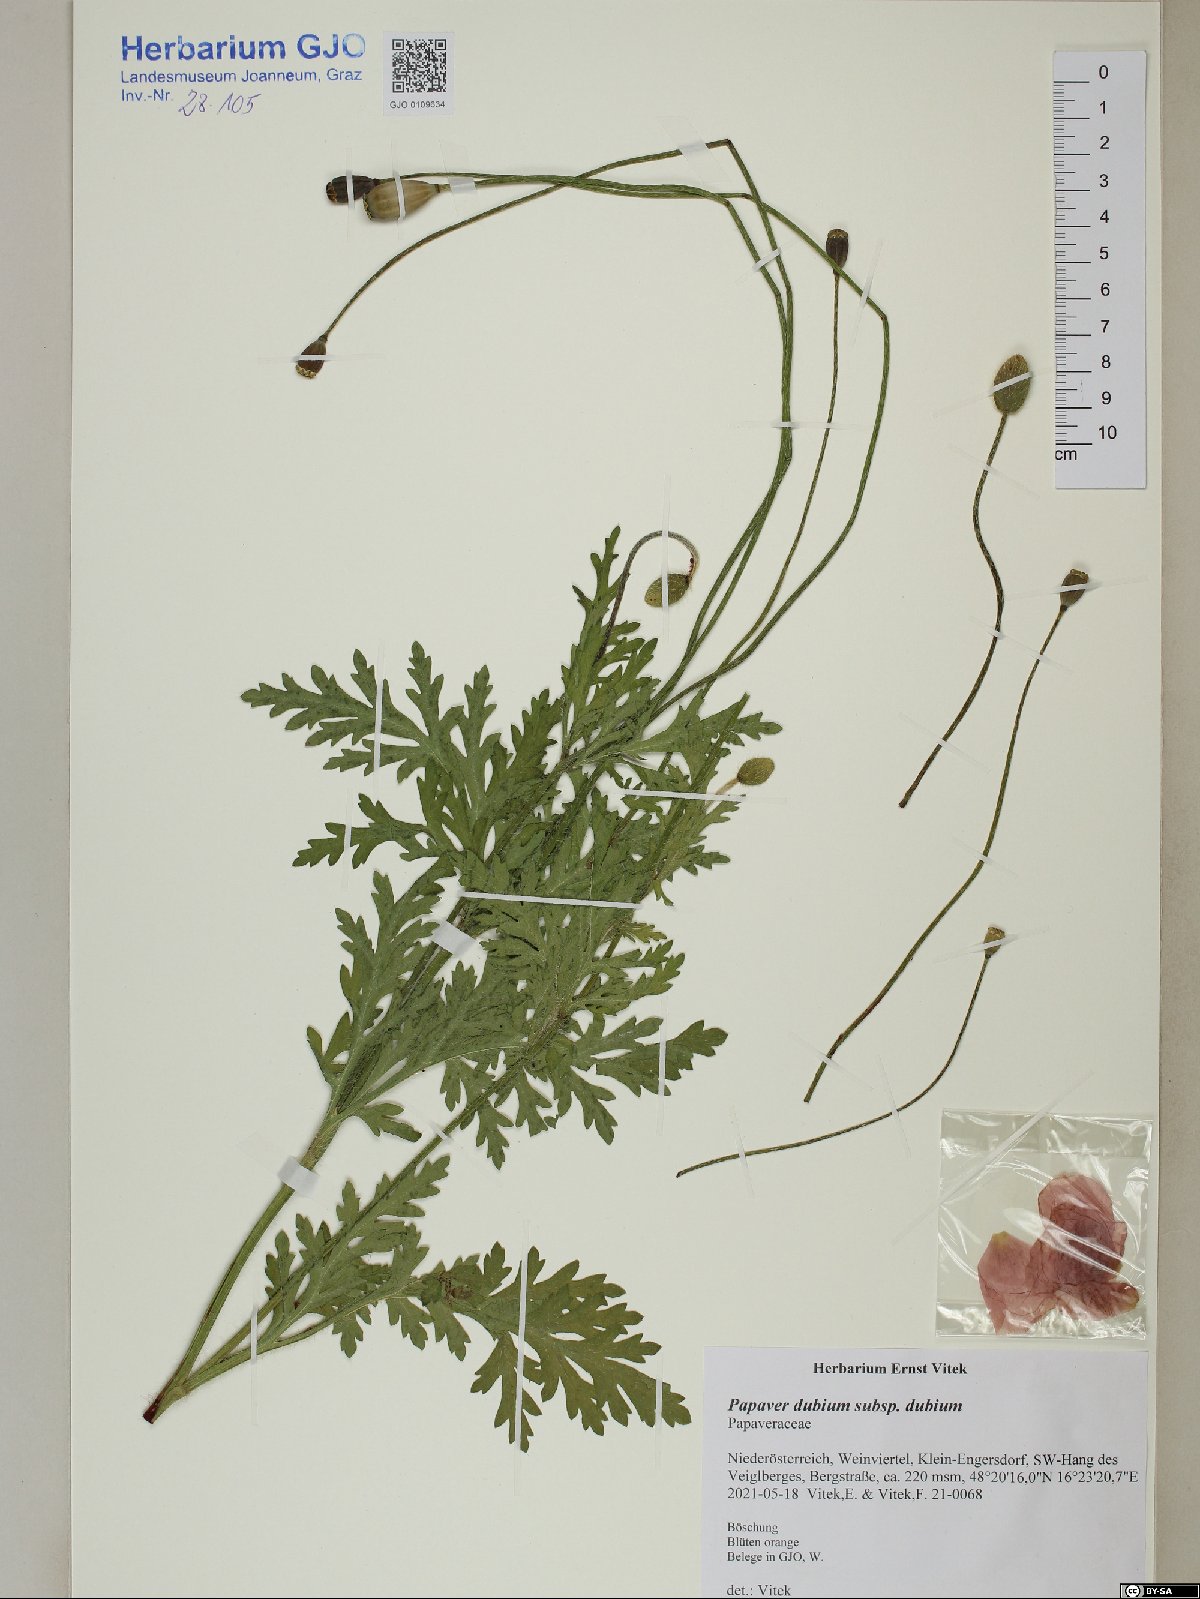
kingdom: Plantae
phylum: Tracheophyta
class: Magnoliopsida
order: Ranunculales
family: Papaveraceae
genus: Papaver
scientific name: Papaver dubium
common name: Long-headed poppy
